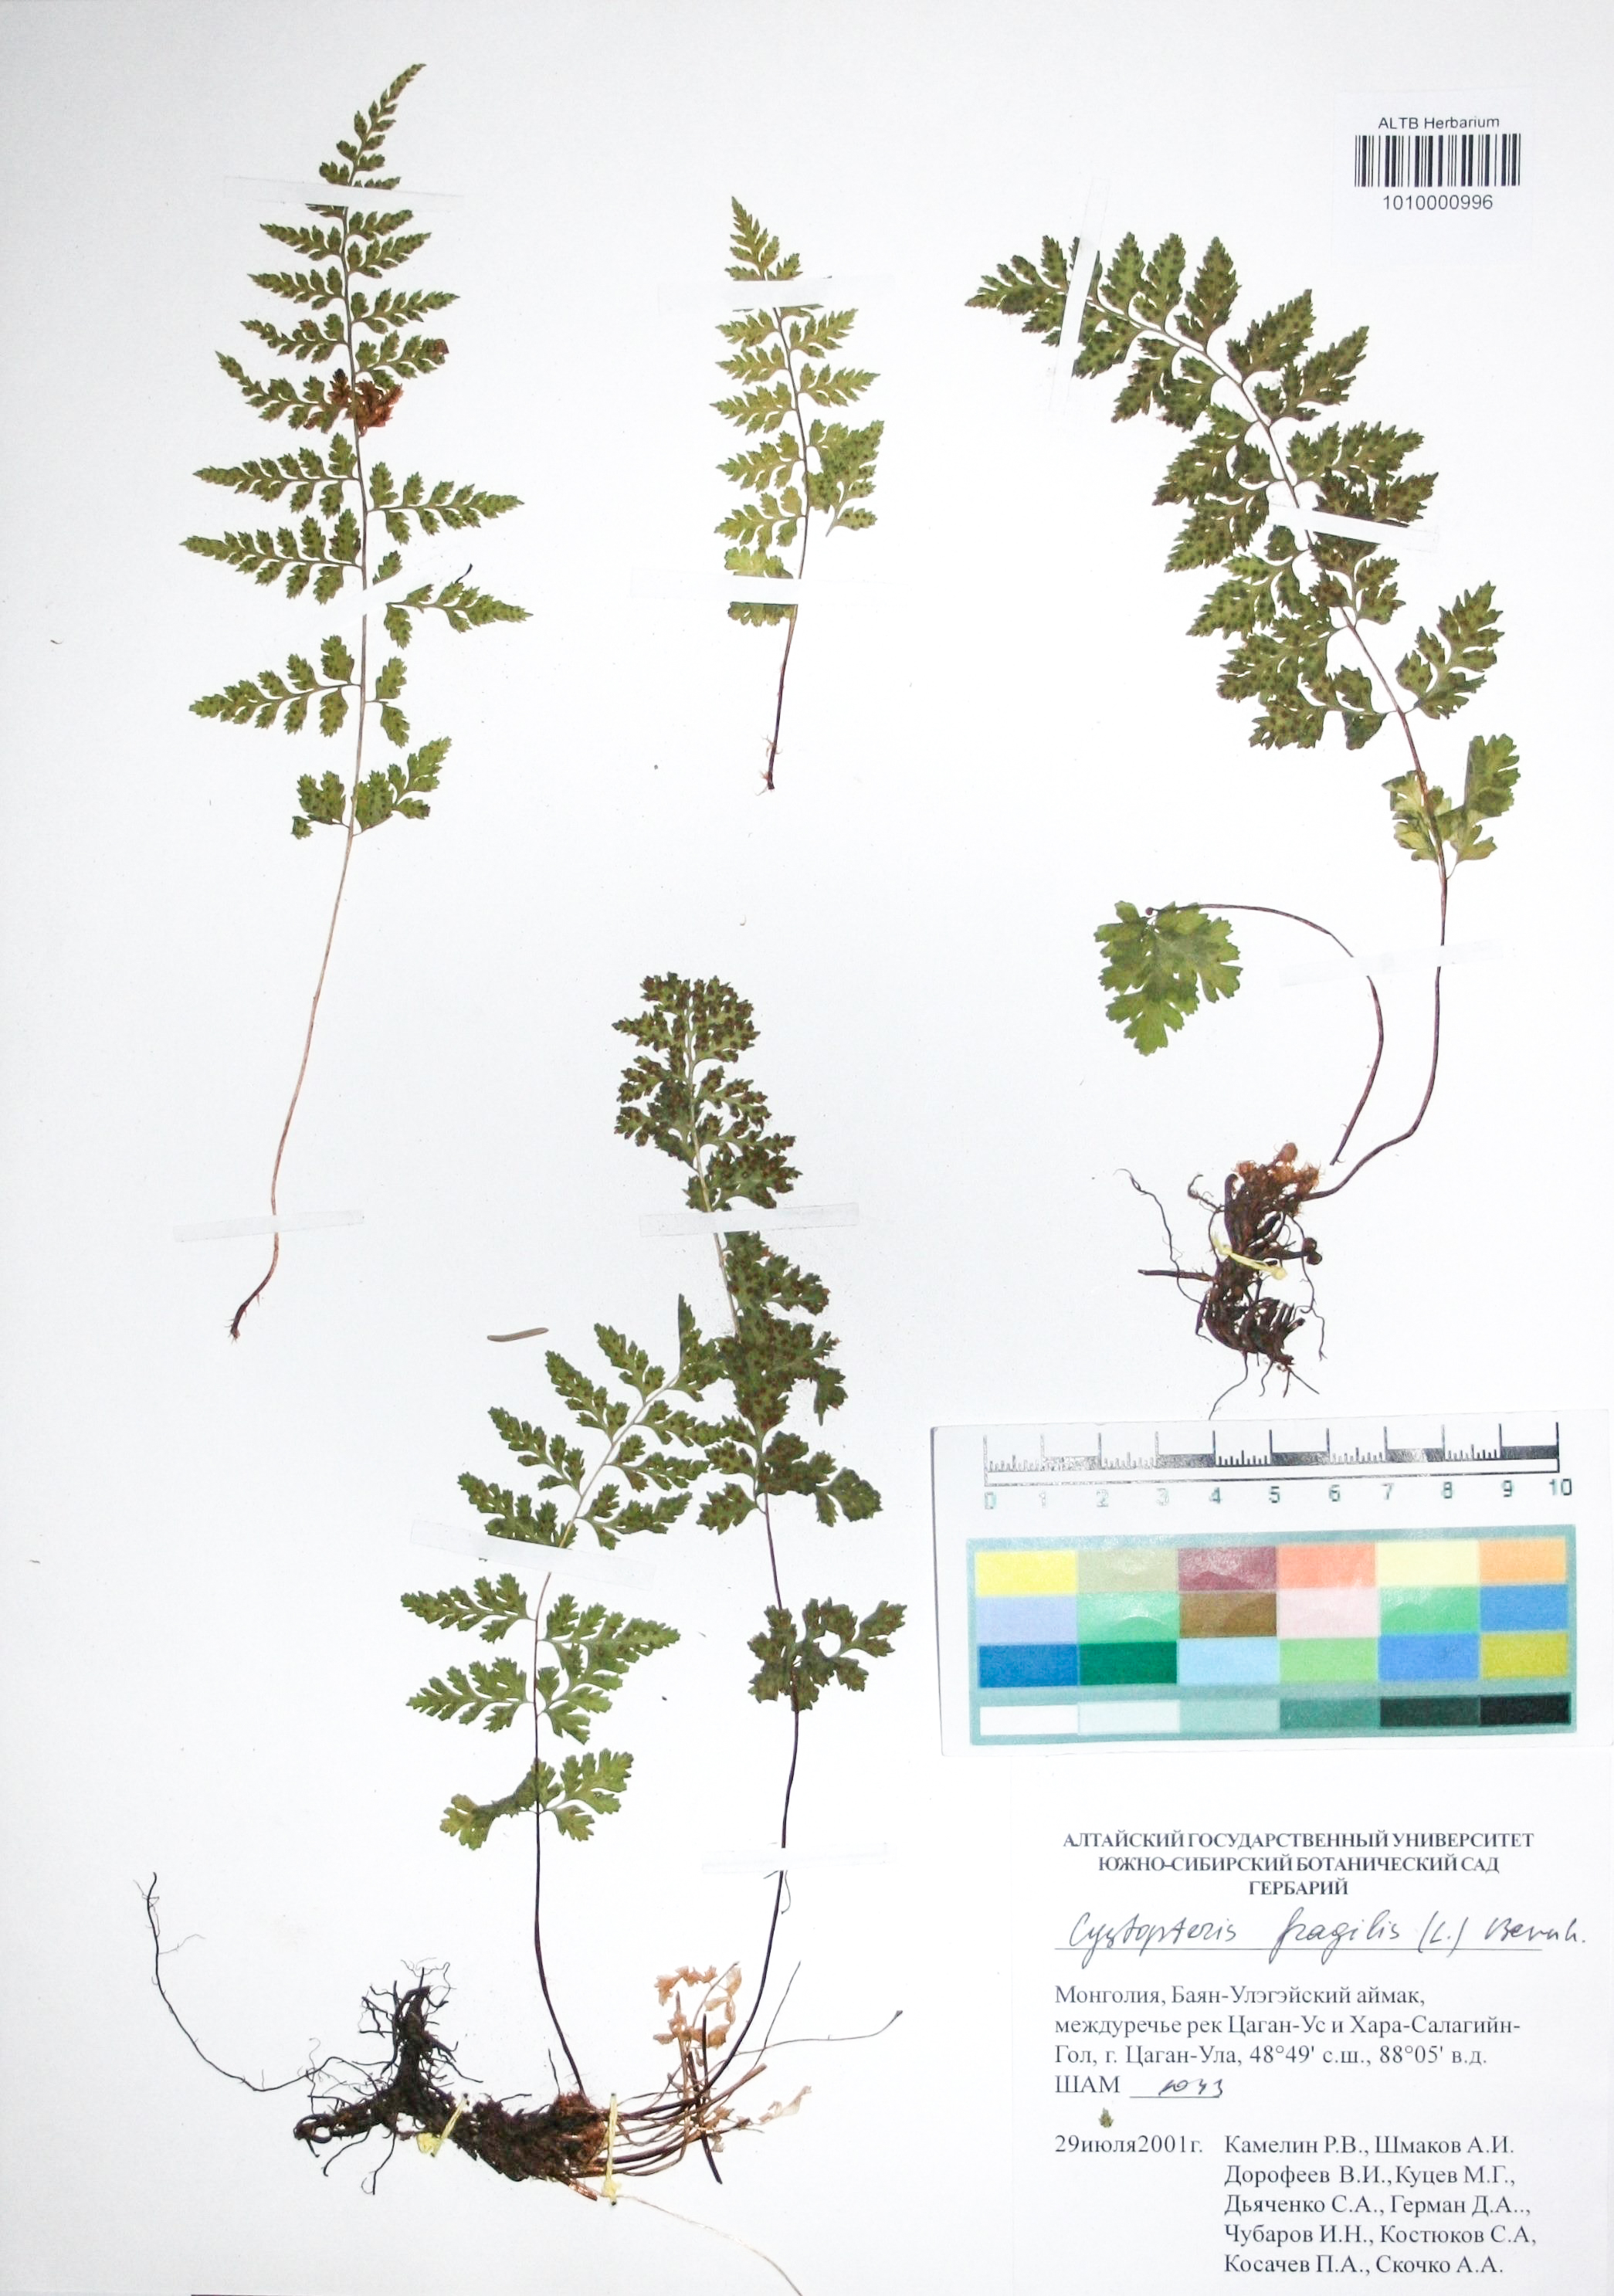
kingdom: Plantae
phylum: Tracheophyta
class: Polypodiopsida
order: Polypodiales
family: Cystopteridaceae
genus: Cystopteris
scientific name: Cystopteris fragilis
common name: Brittle bladder fern
